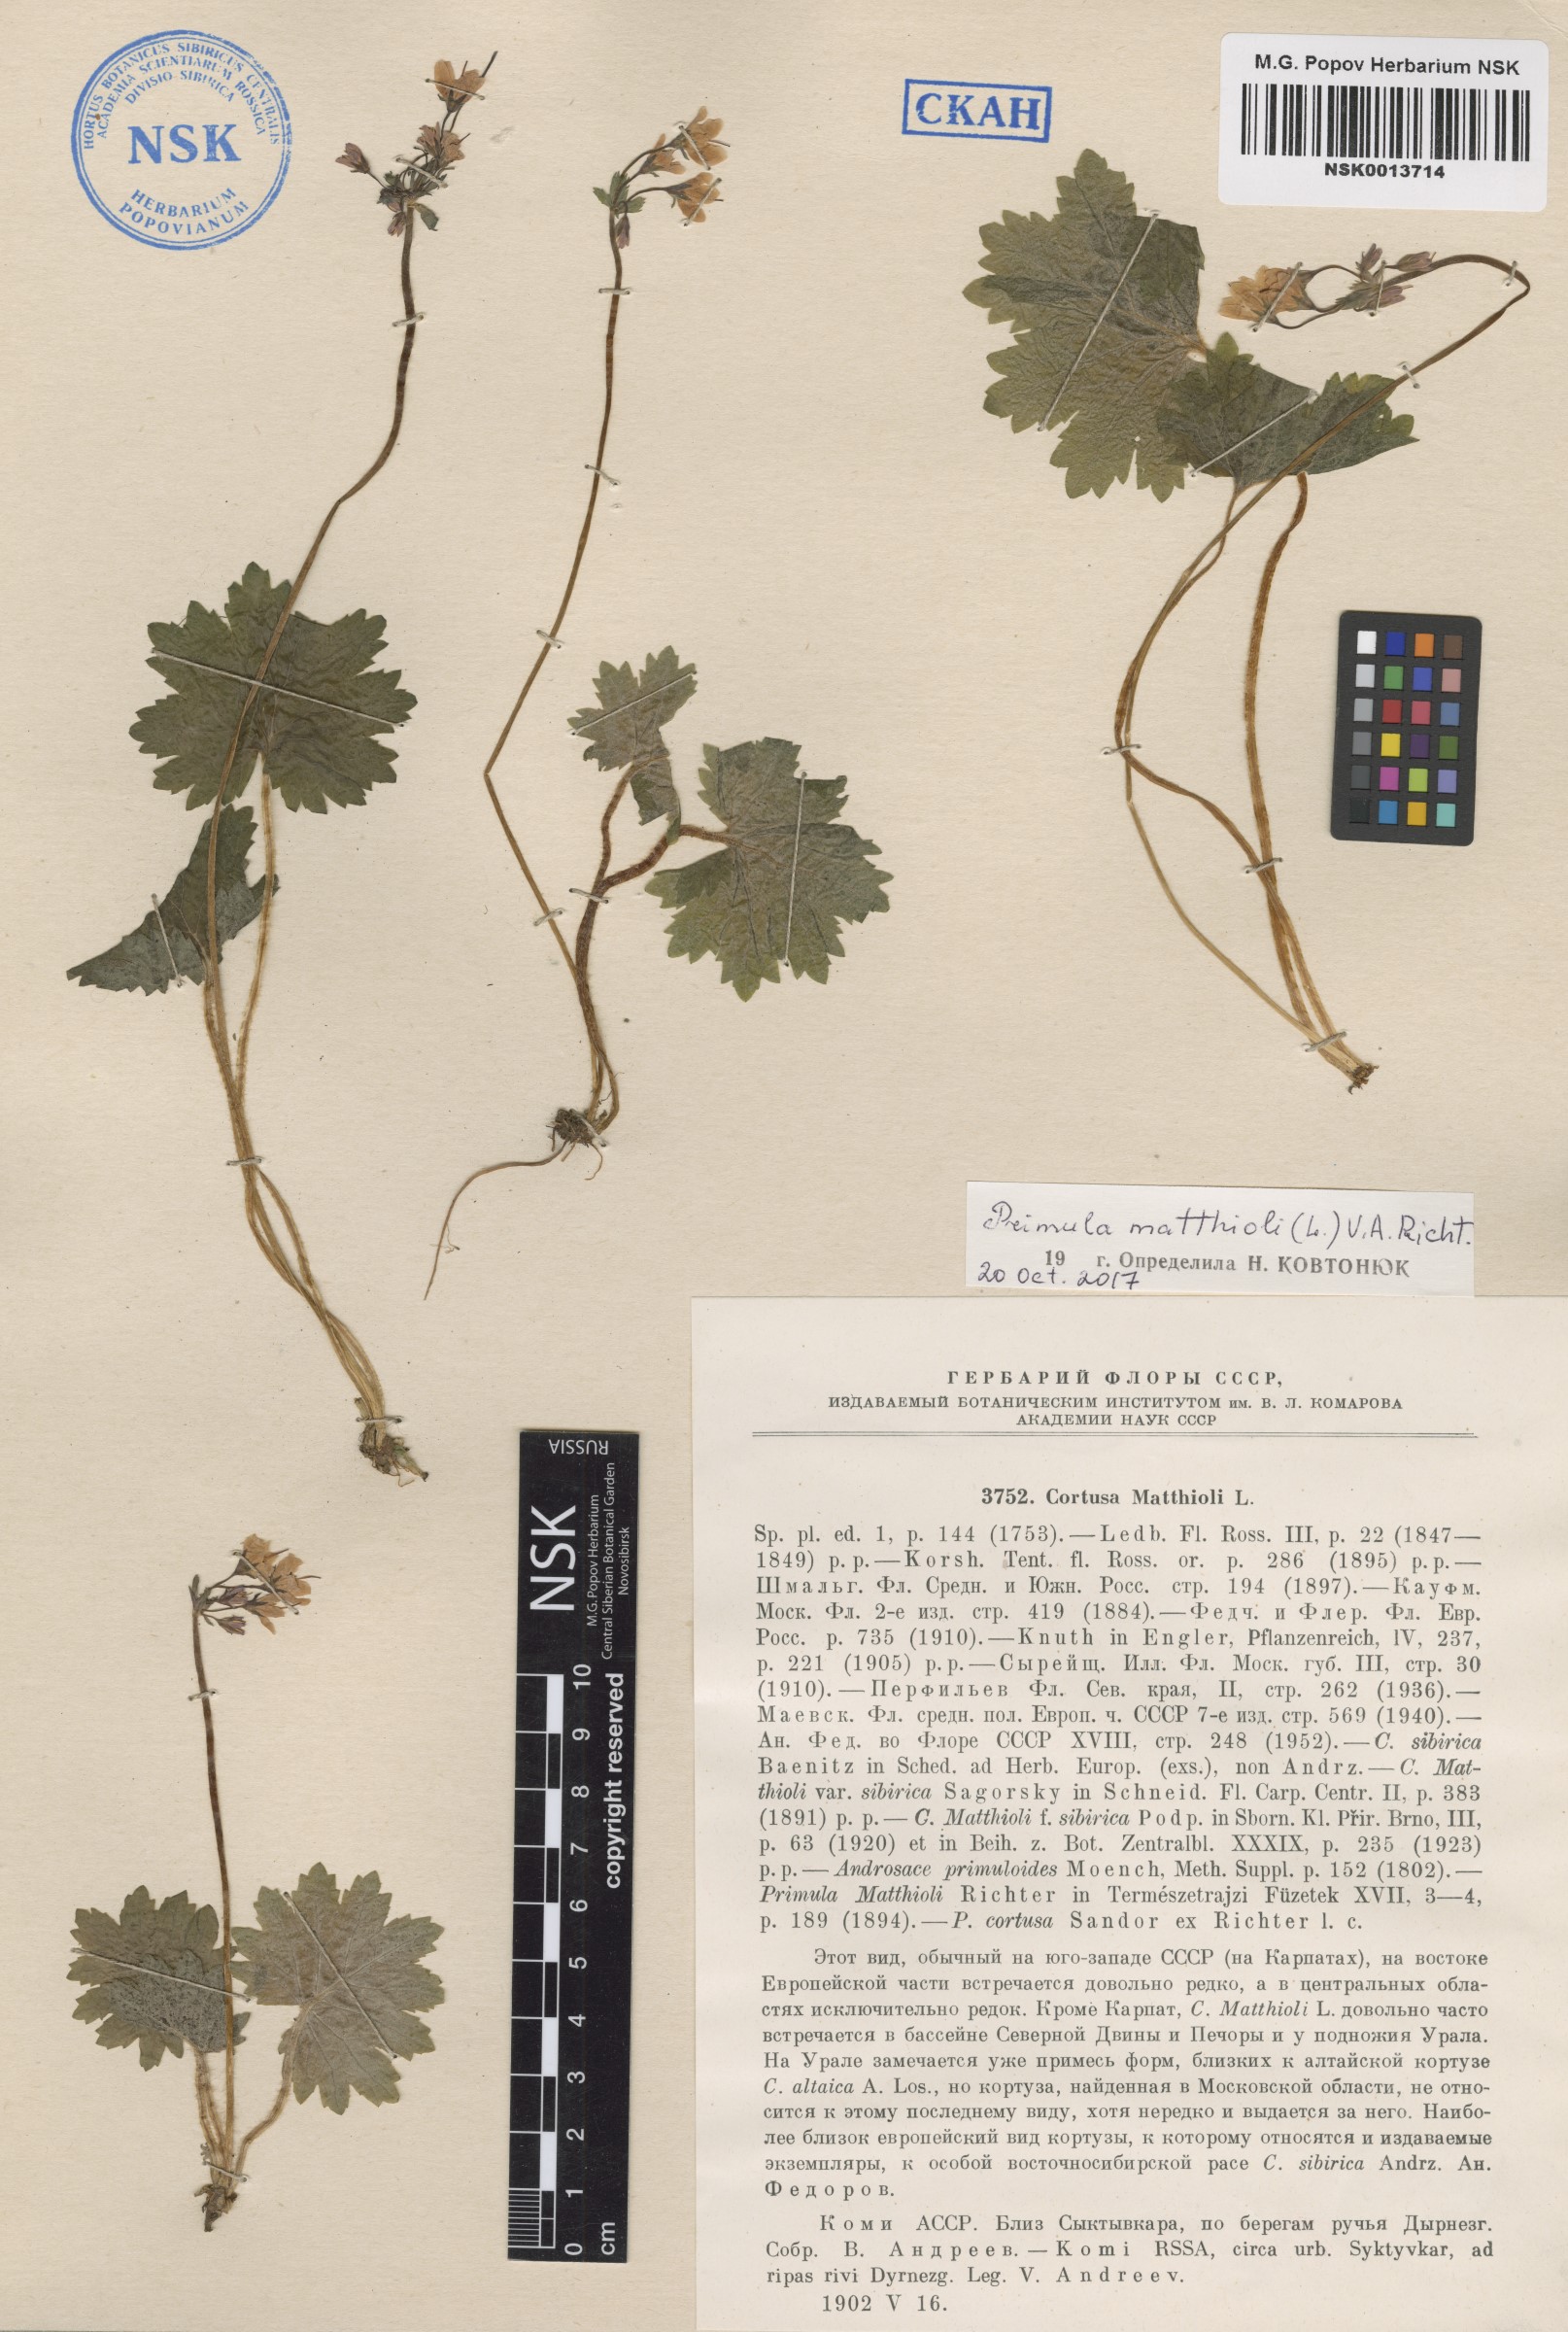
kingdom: Plantae
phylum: Tracheophyta
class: Magnoliopsida
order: Ericales
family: Primulaceae
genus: Primula
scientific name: Primula matthioli
